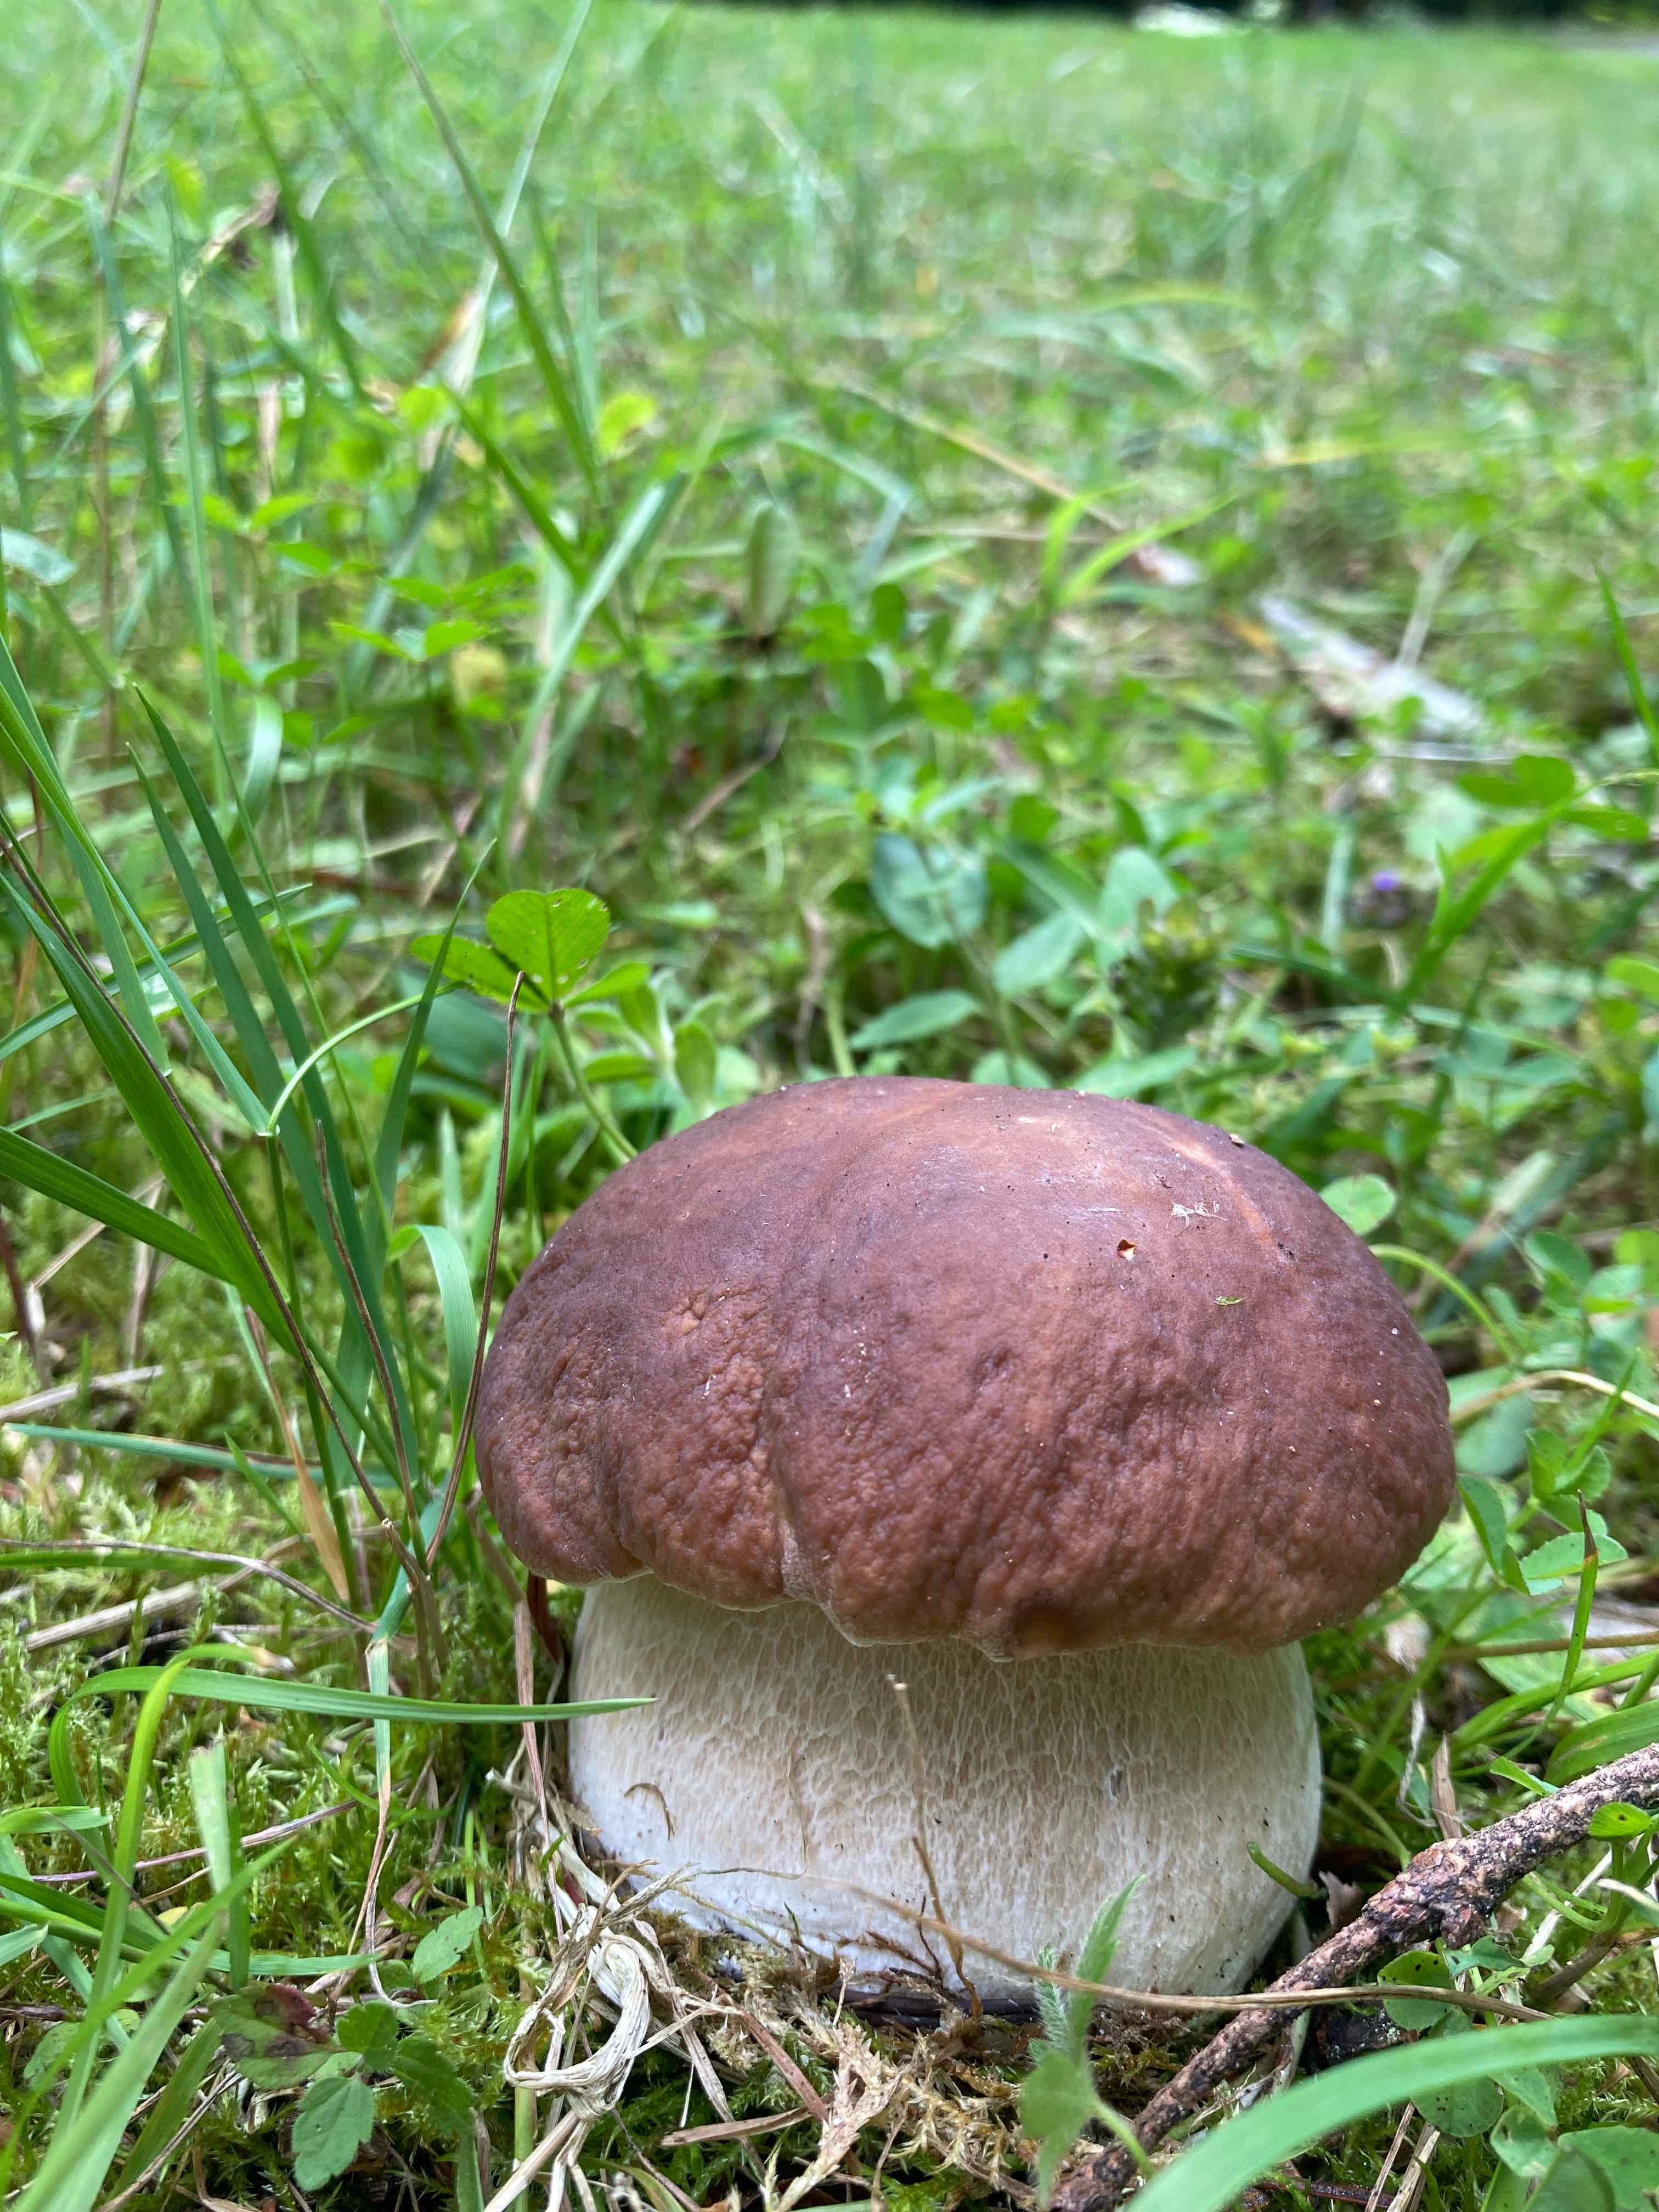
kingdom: Fungi
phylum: Basidiomycota
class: Agaricomycetes
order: Boletales
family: Boletaceae
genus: Boletus
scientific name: Boletus edulis
